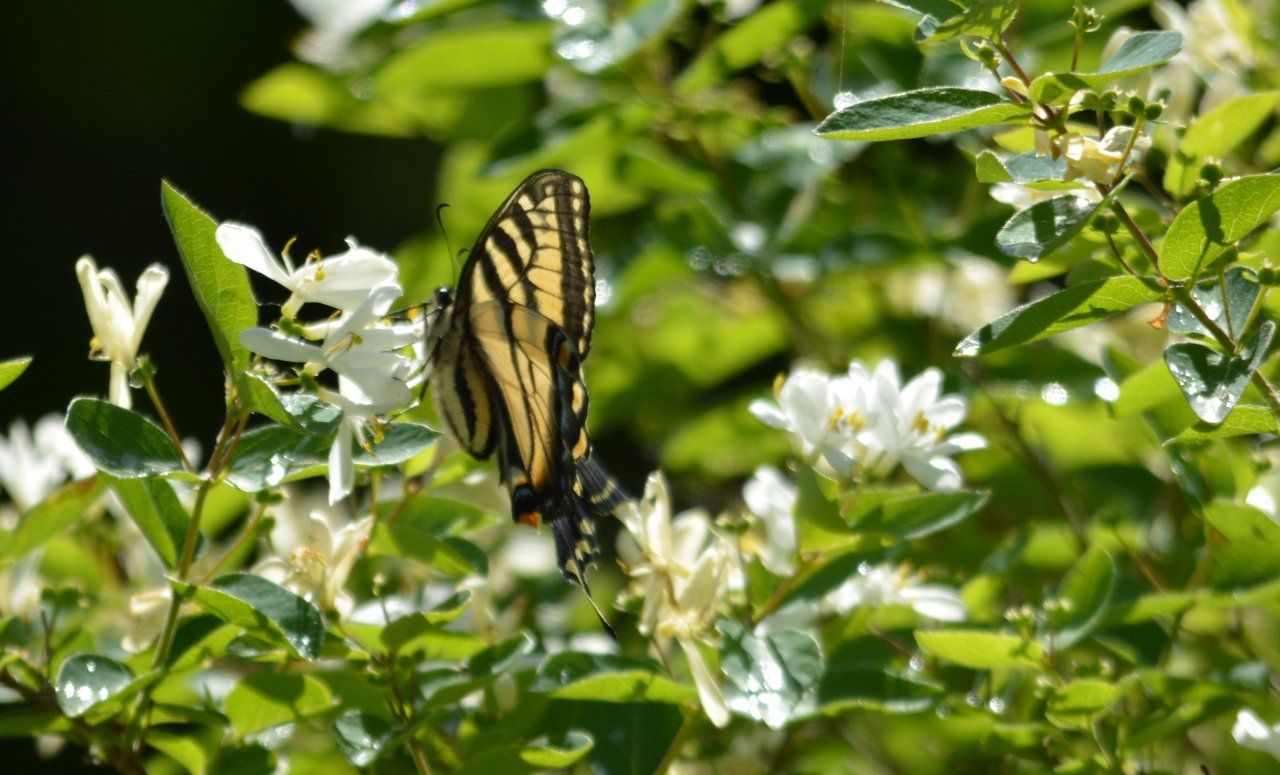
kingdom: Animalia
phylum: Arthropoda
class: Insecta
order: Lepidoptera
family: Papilionidae
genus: Pterourus
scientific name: Pterourus canadensis
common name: Canadian Tiger Swallowtail
